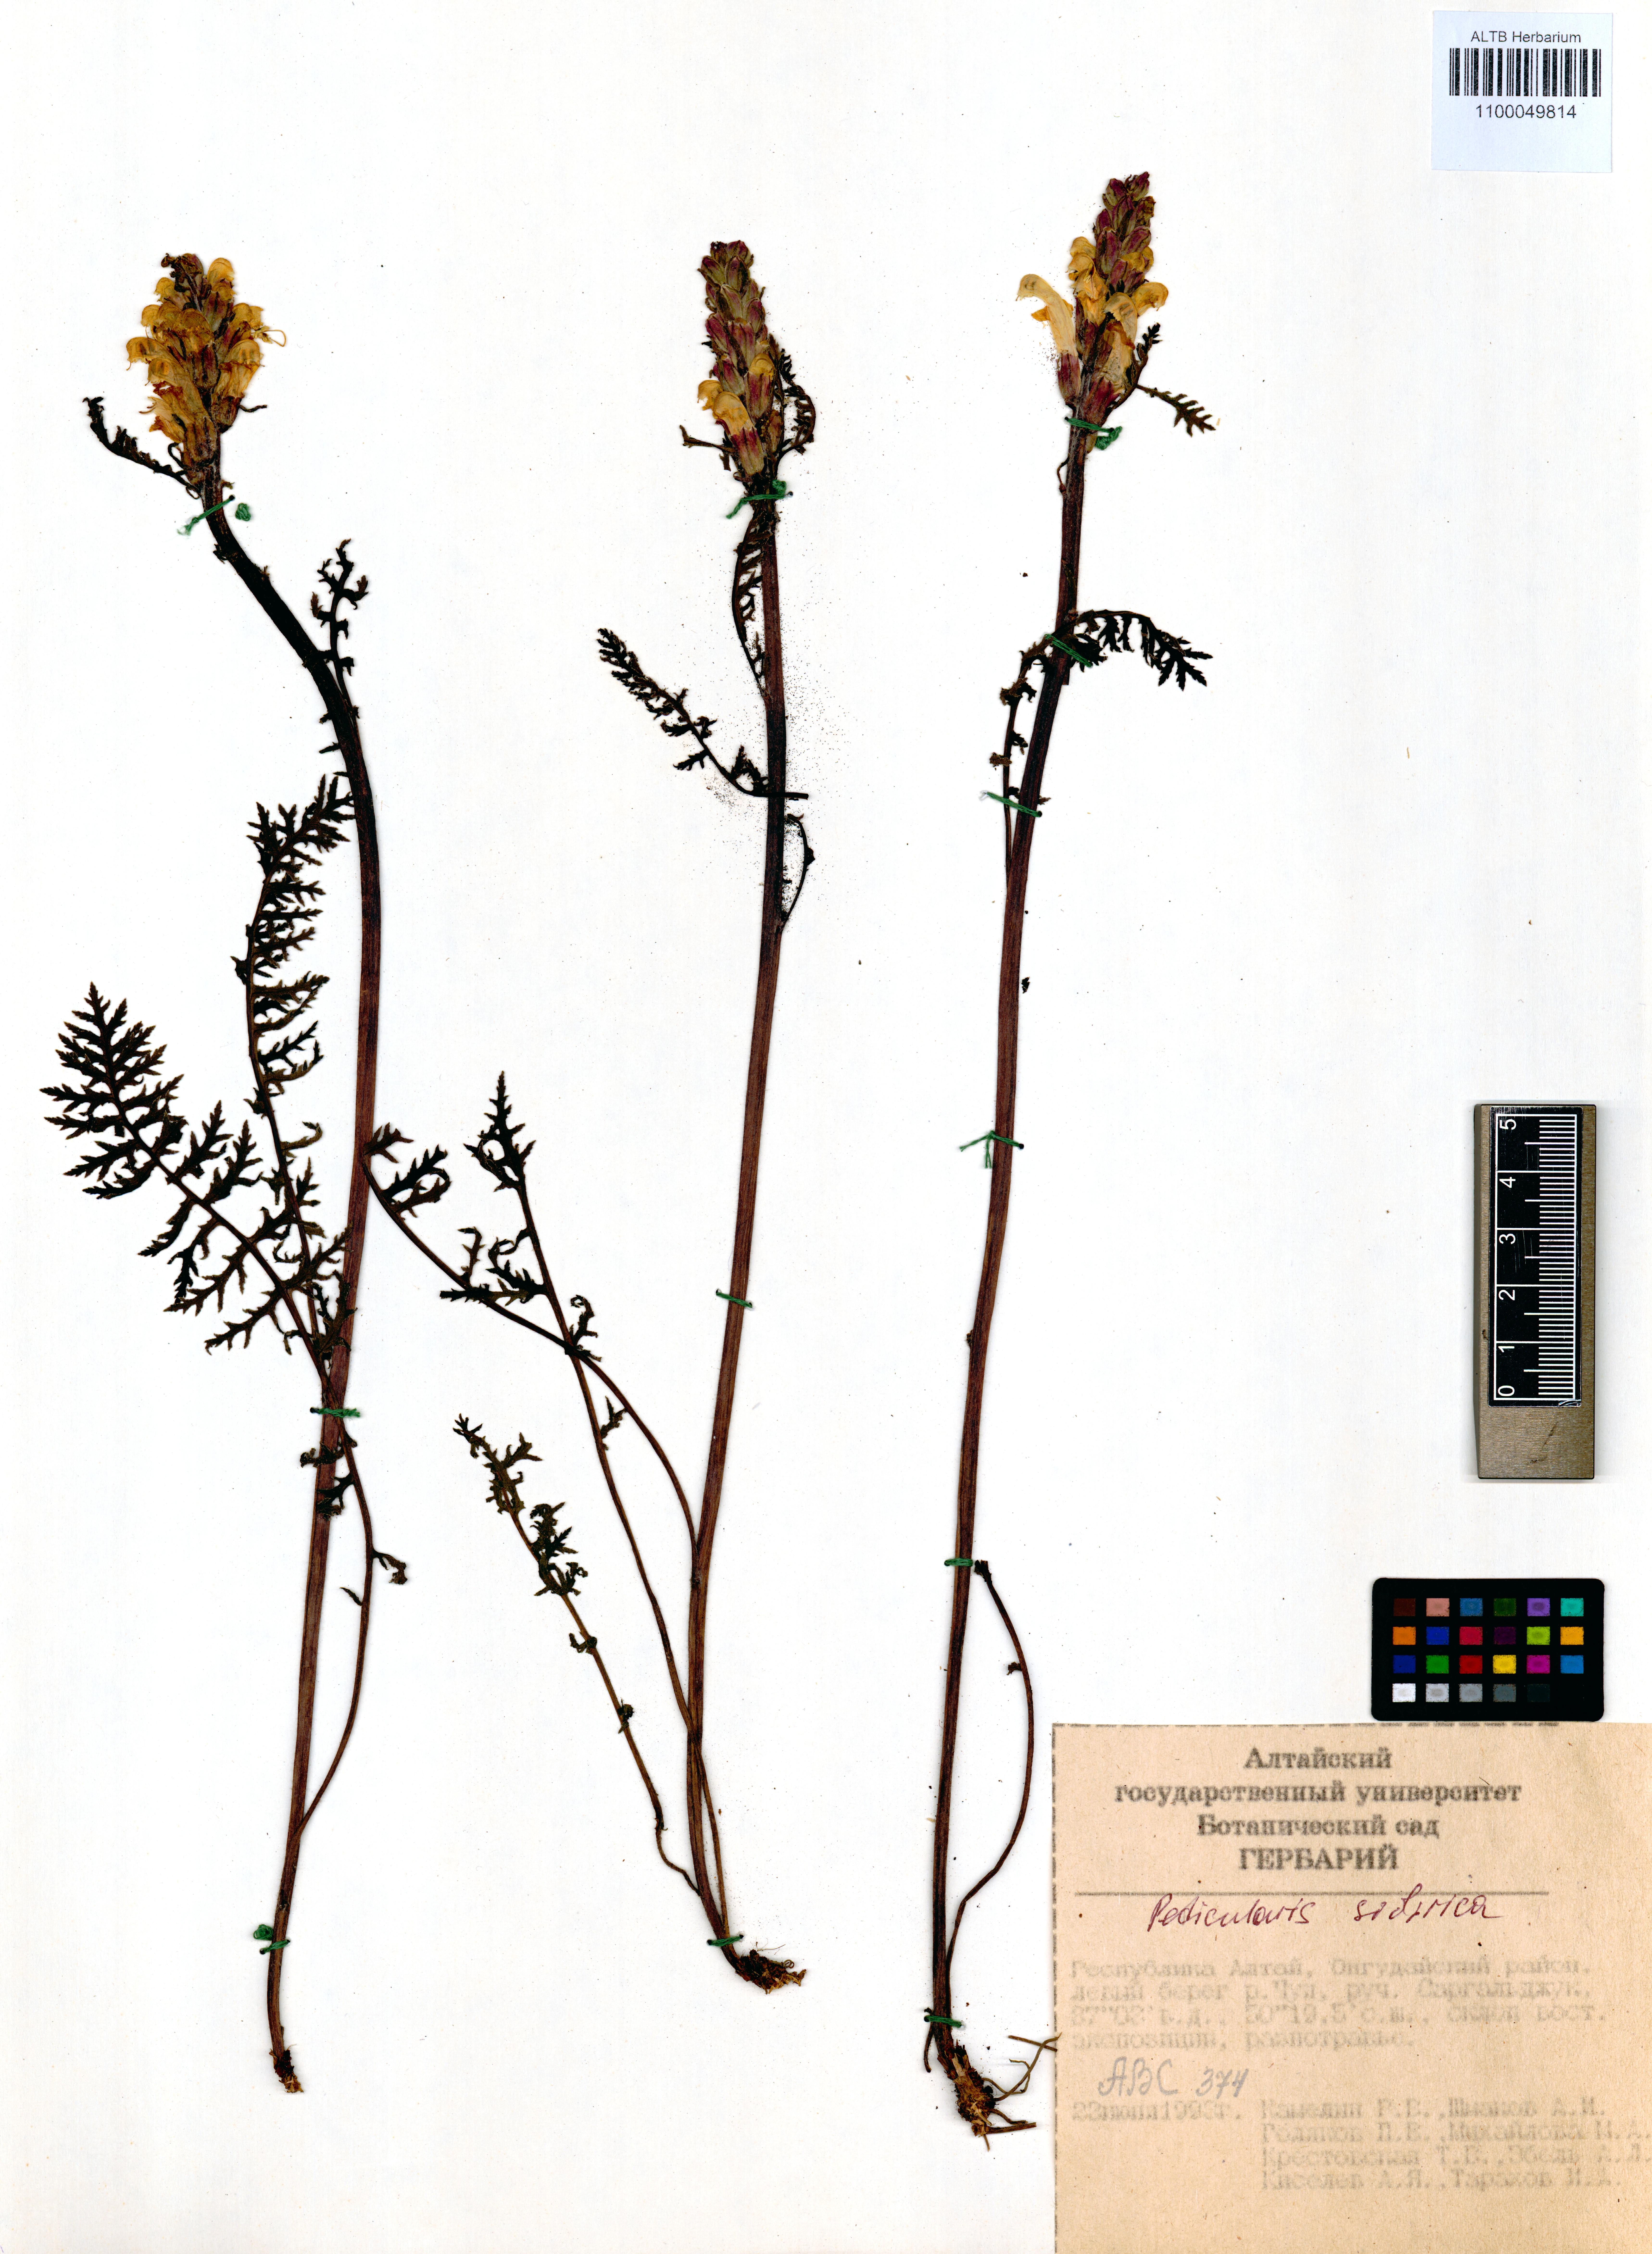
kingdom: Plantae
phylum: Tracheophyta
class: Magnoliopsida
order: Lamiales
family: Orobanchaceae
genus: Pedicularis
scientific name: Pedicularis sibirica
